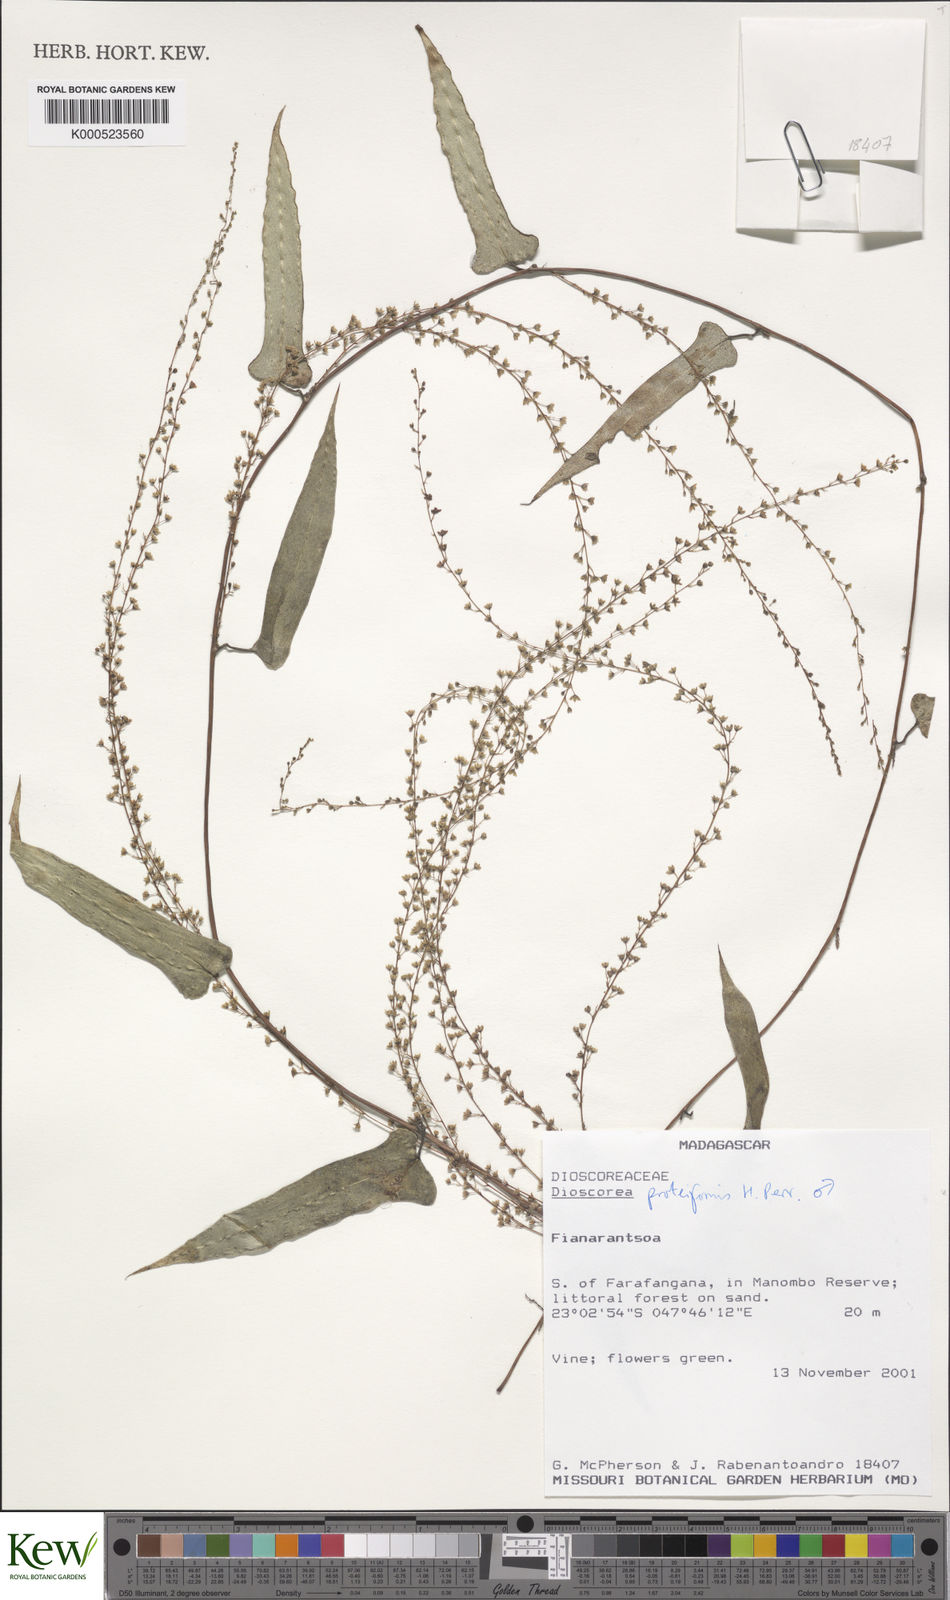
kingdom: Plantae
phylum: Tracheophyta
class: Liliopsida
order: Dioscoreales
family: Dioscoreaceae
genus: Dioscorea
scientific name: Dioscorea proteiformis
